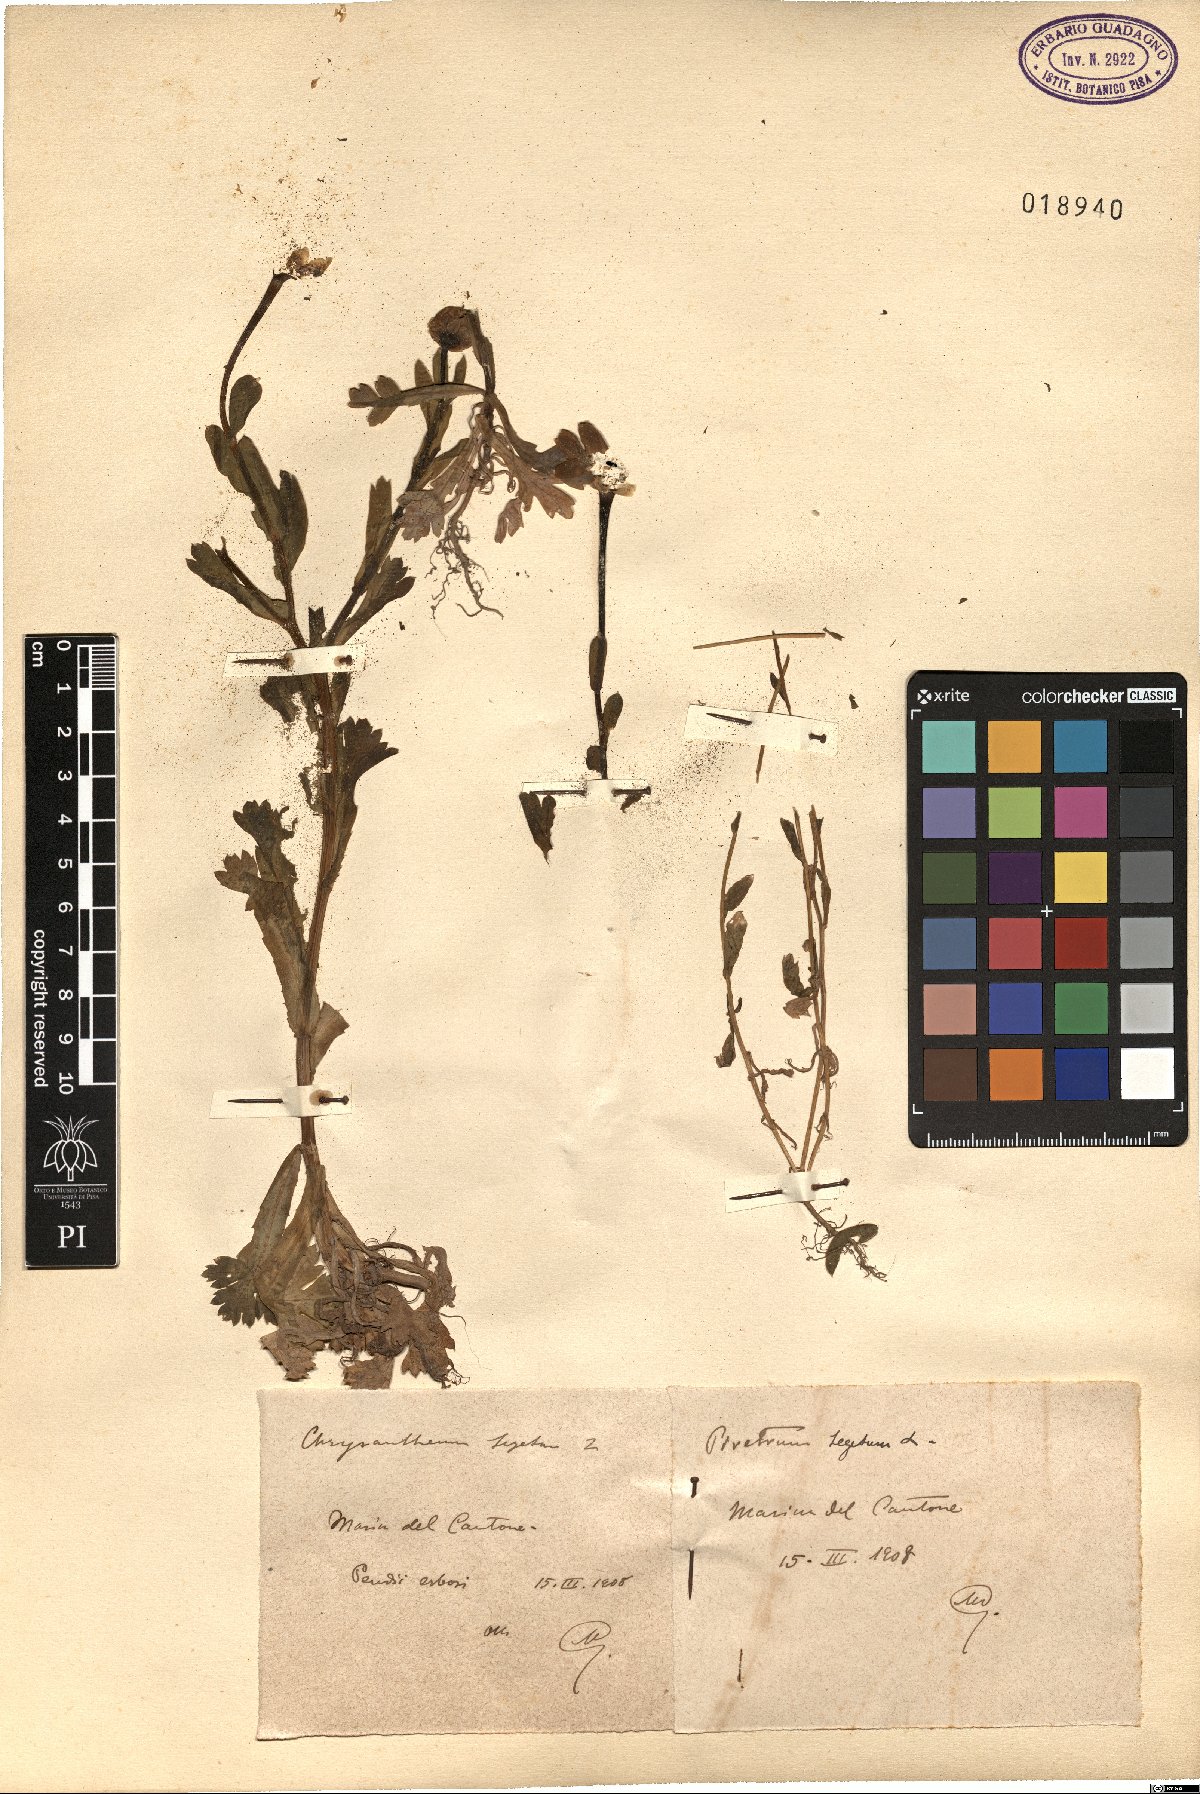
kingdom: Plantae
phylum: Tracheophyta
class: Magnoliopsida
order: Asterales
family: Asteraceae
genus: Glebionis
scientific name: Glebionis segetum
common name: Corndaisy
